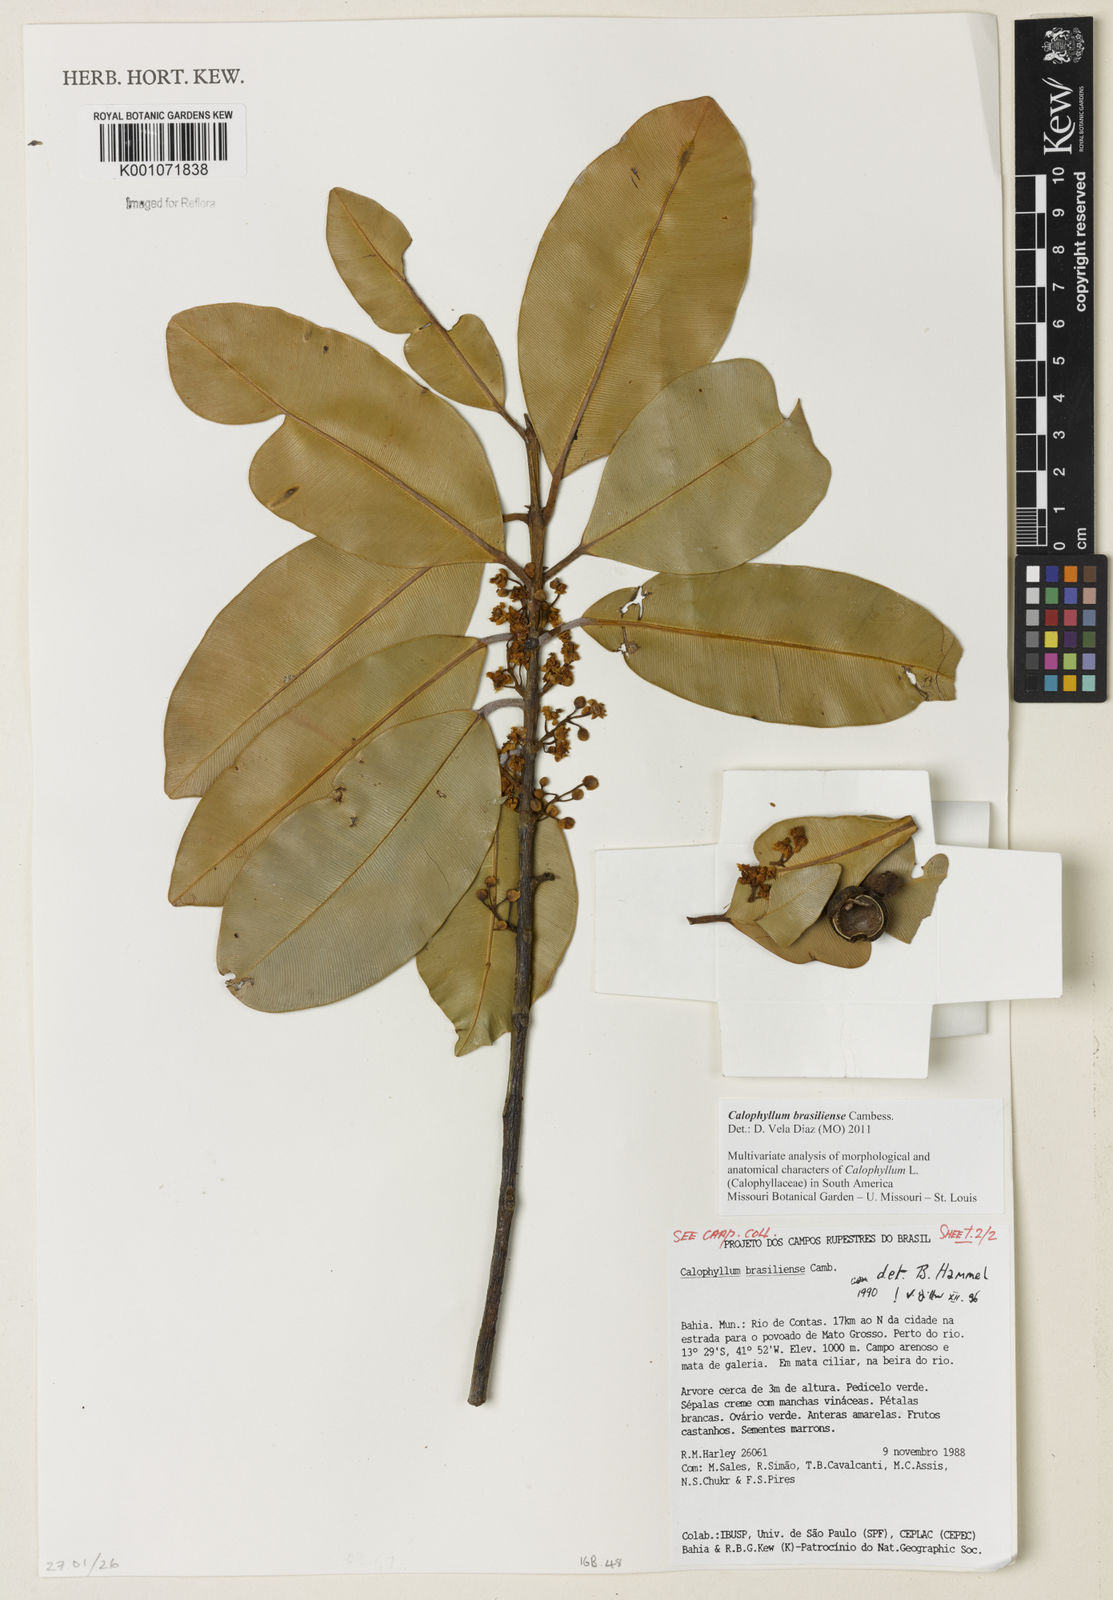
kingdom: Plantae
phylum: Tracheophyta
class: Magnoliopsida
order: Malpighiales
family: Calophyllaceae
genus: Calophyllum
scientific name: Calophyllum brasiliense
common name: Santa maria
